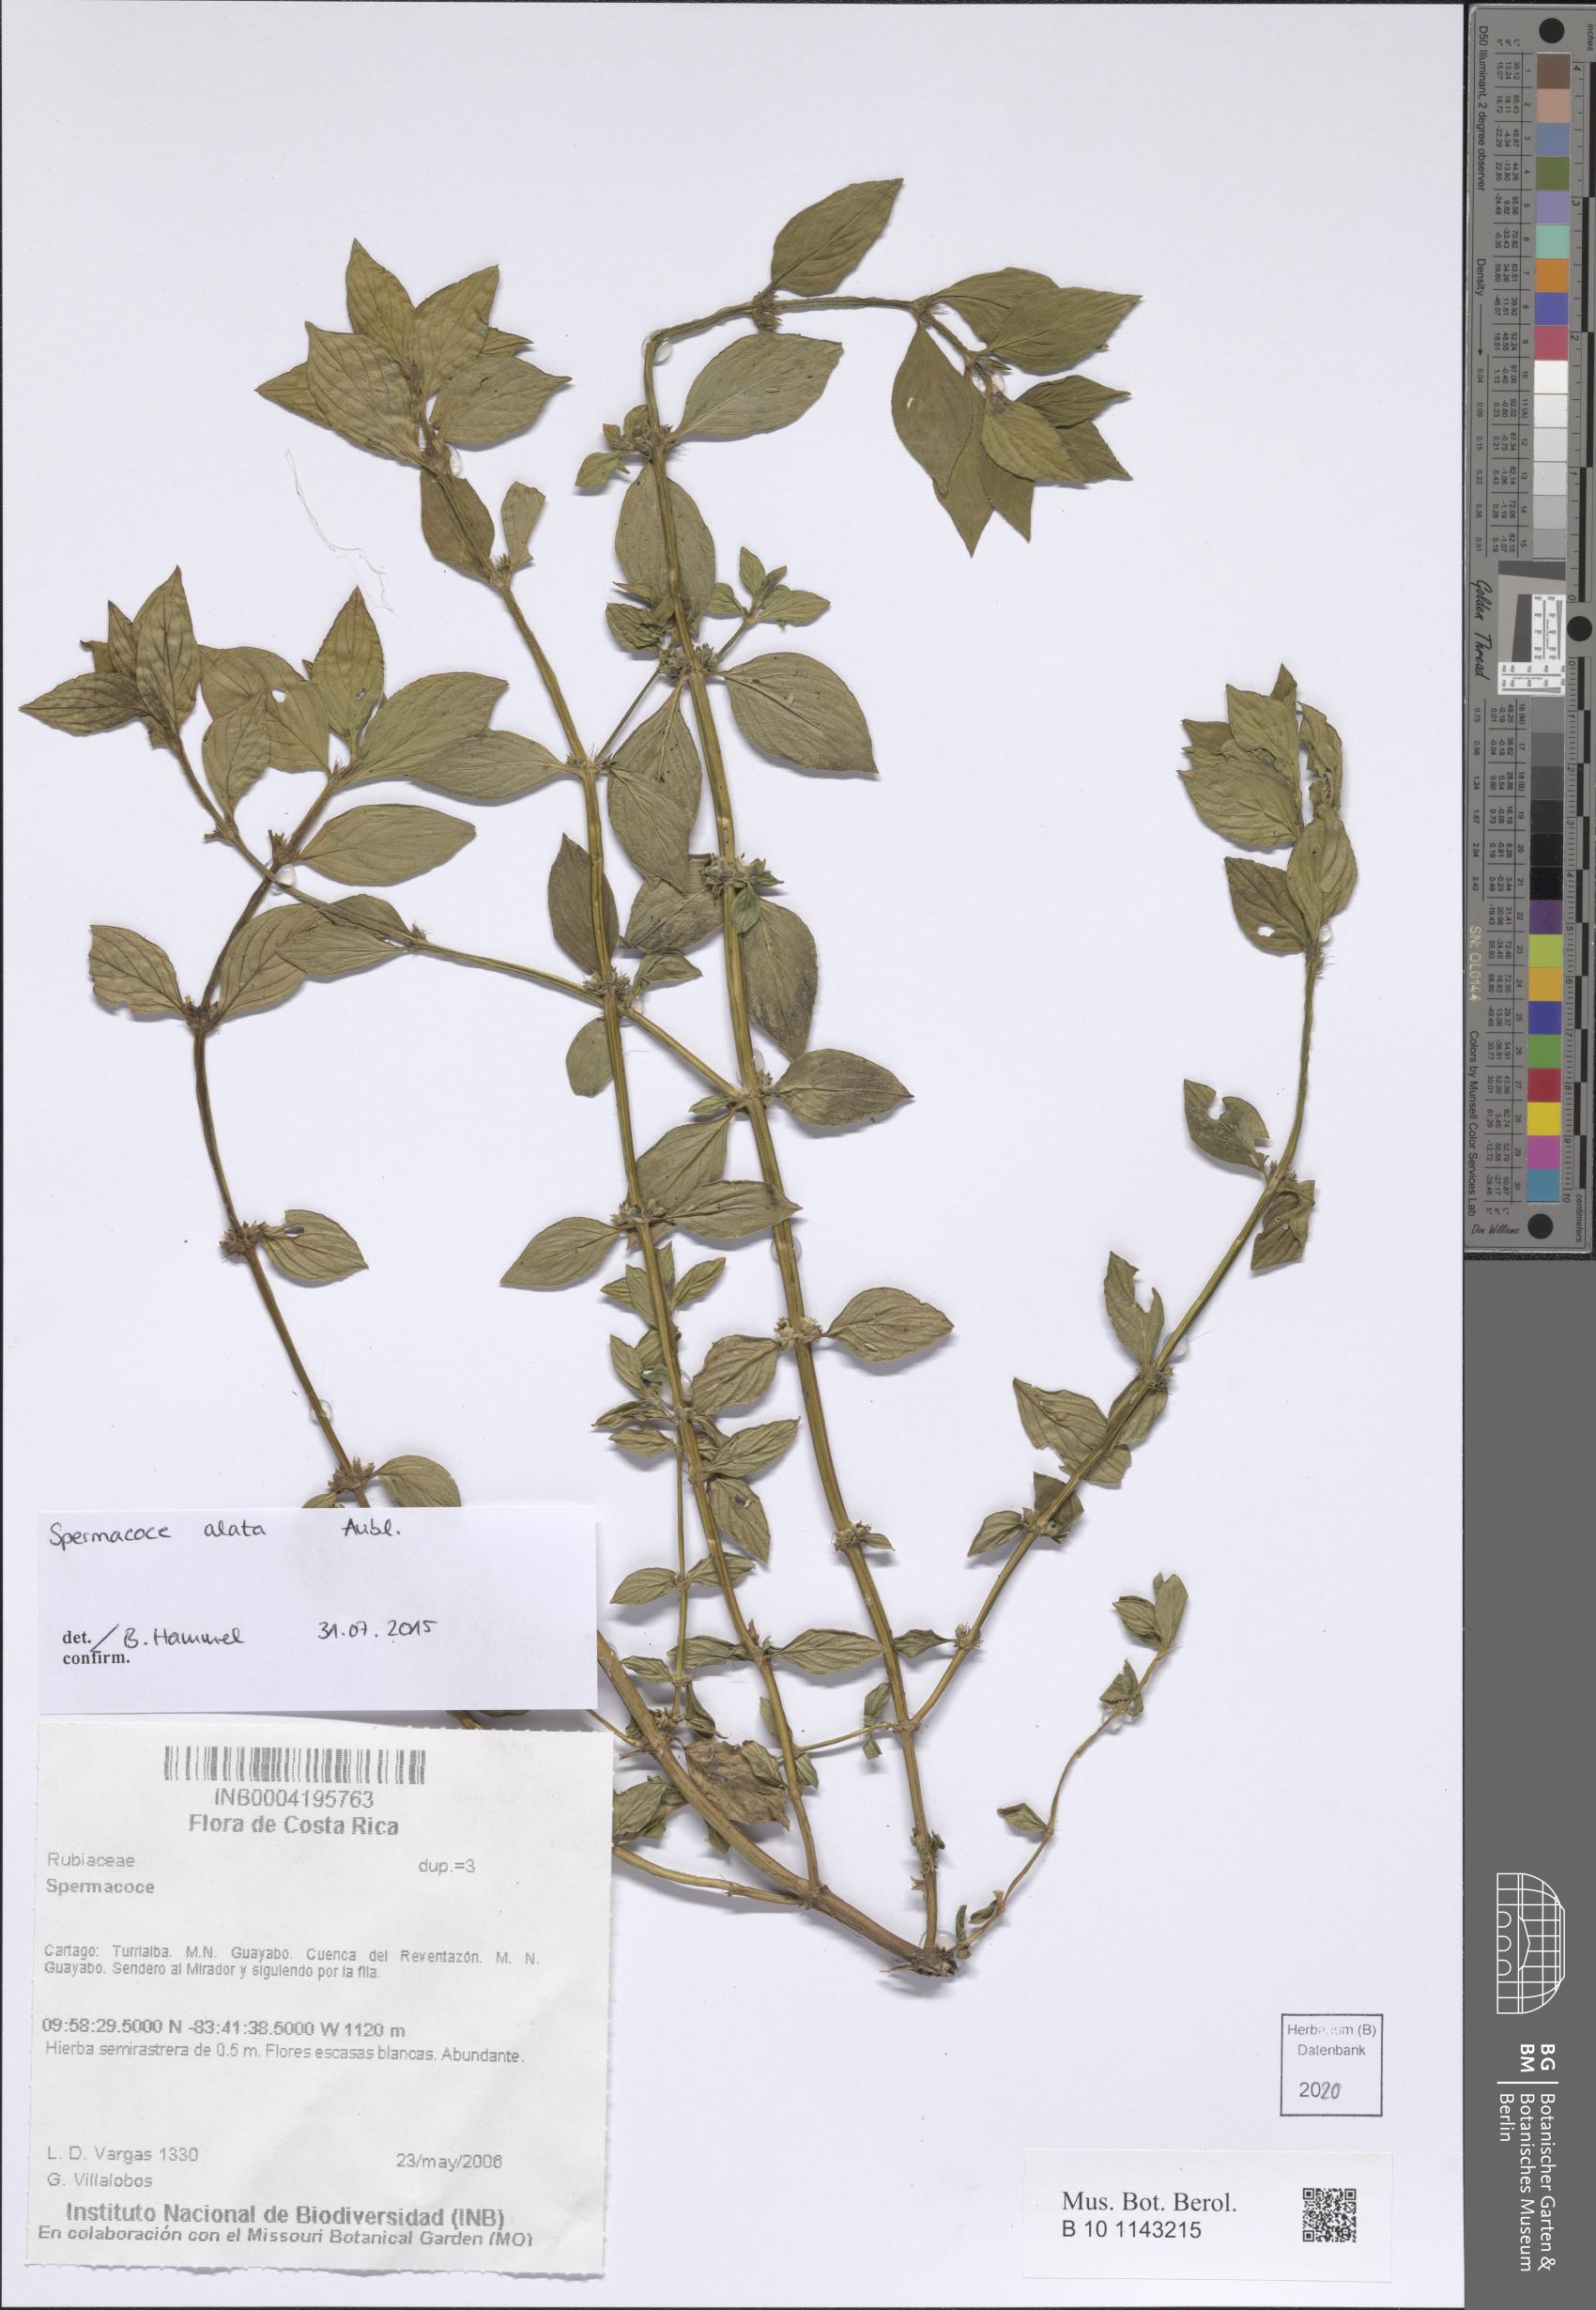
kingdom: Plantae
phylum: Tracheophyta
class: Magnoliopsida
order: Gentianales
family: Rubiaceae
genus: Spermacoce
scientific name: Spermacoce alata
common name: Winged false buttonweed
